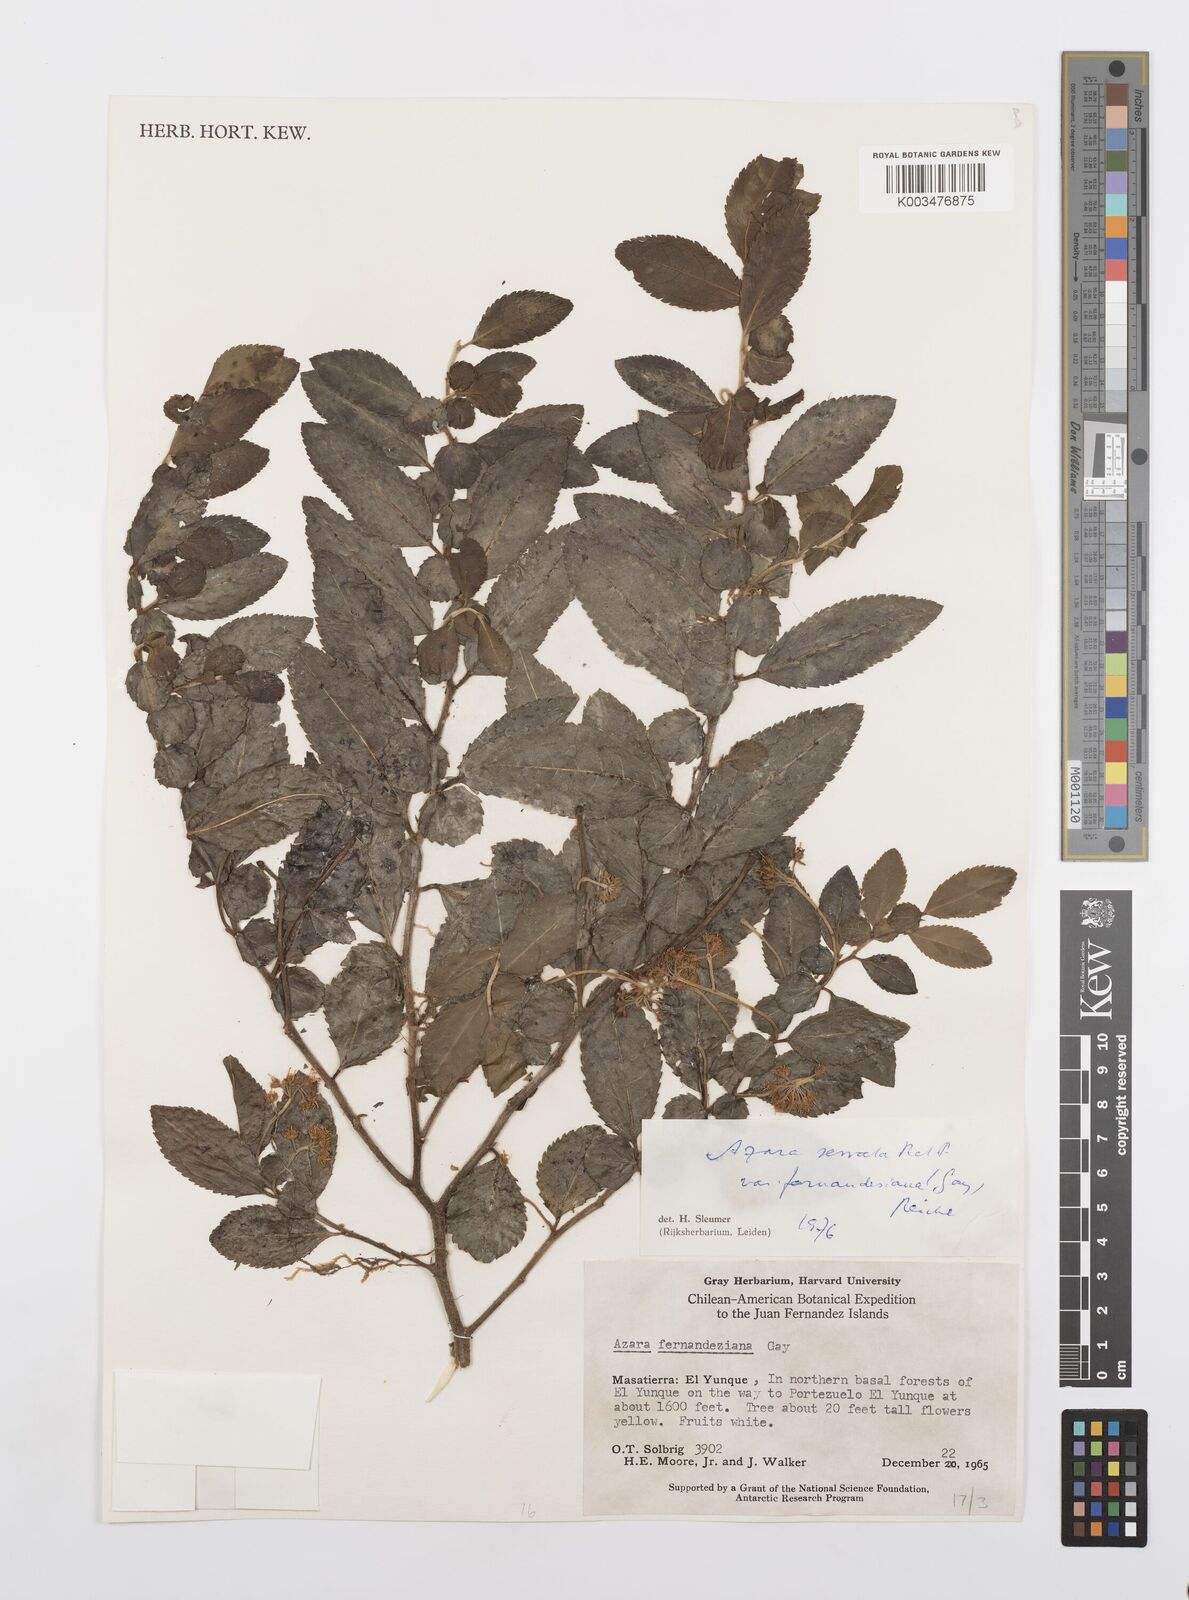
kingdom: Plantae
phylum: Tracheophyta
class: Magnoliopsida
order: Malpighiales
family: Salicaceae
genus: Azara
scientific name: Azara serrata
